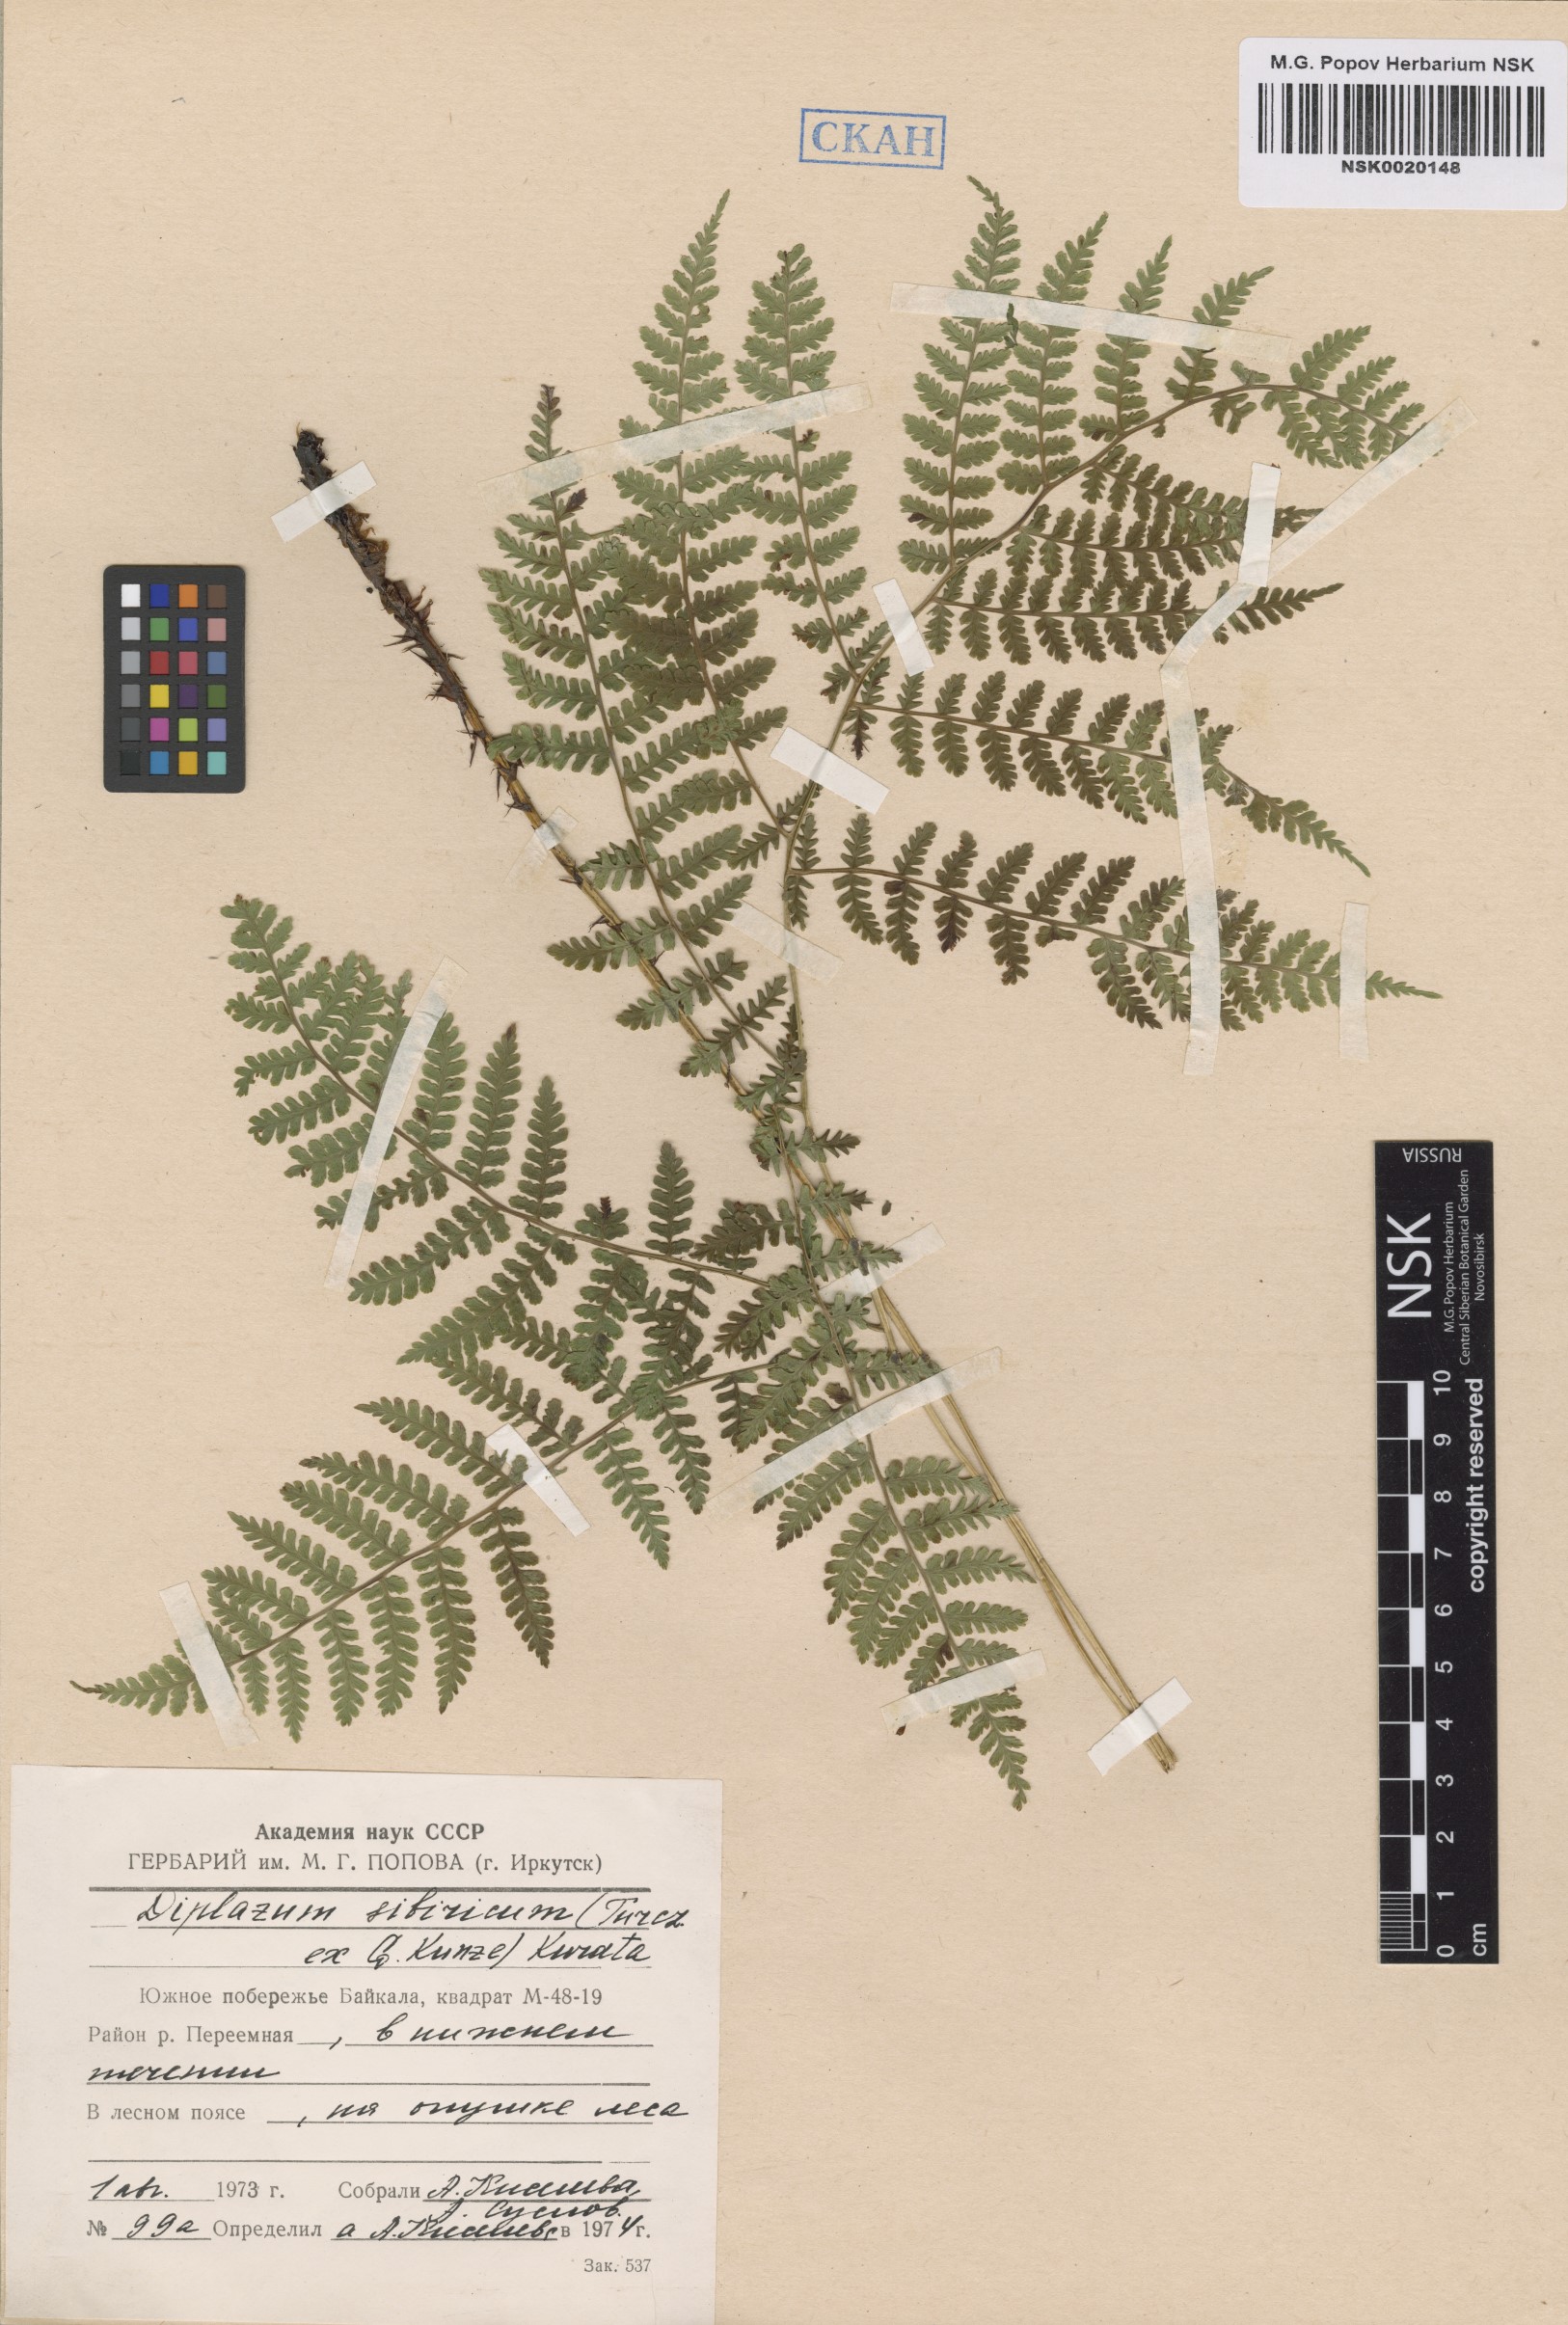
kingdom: Plantae
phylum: Tracheophyta
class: Polypodiopsida
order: Polypodiales
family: Athyriaceae
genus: Diplazium
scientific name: Diplazium sibiricum
